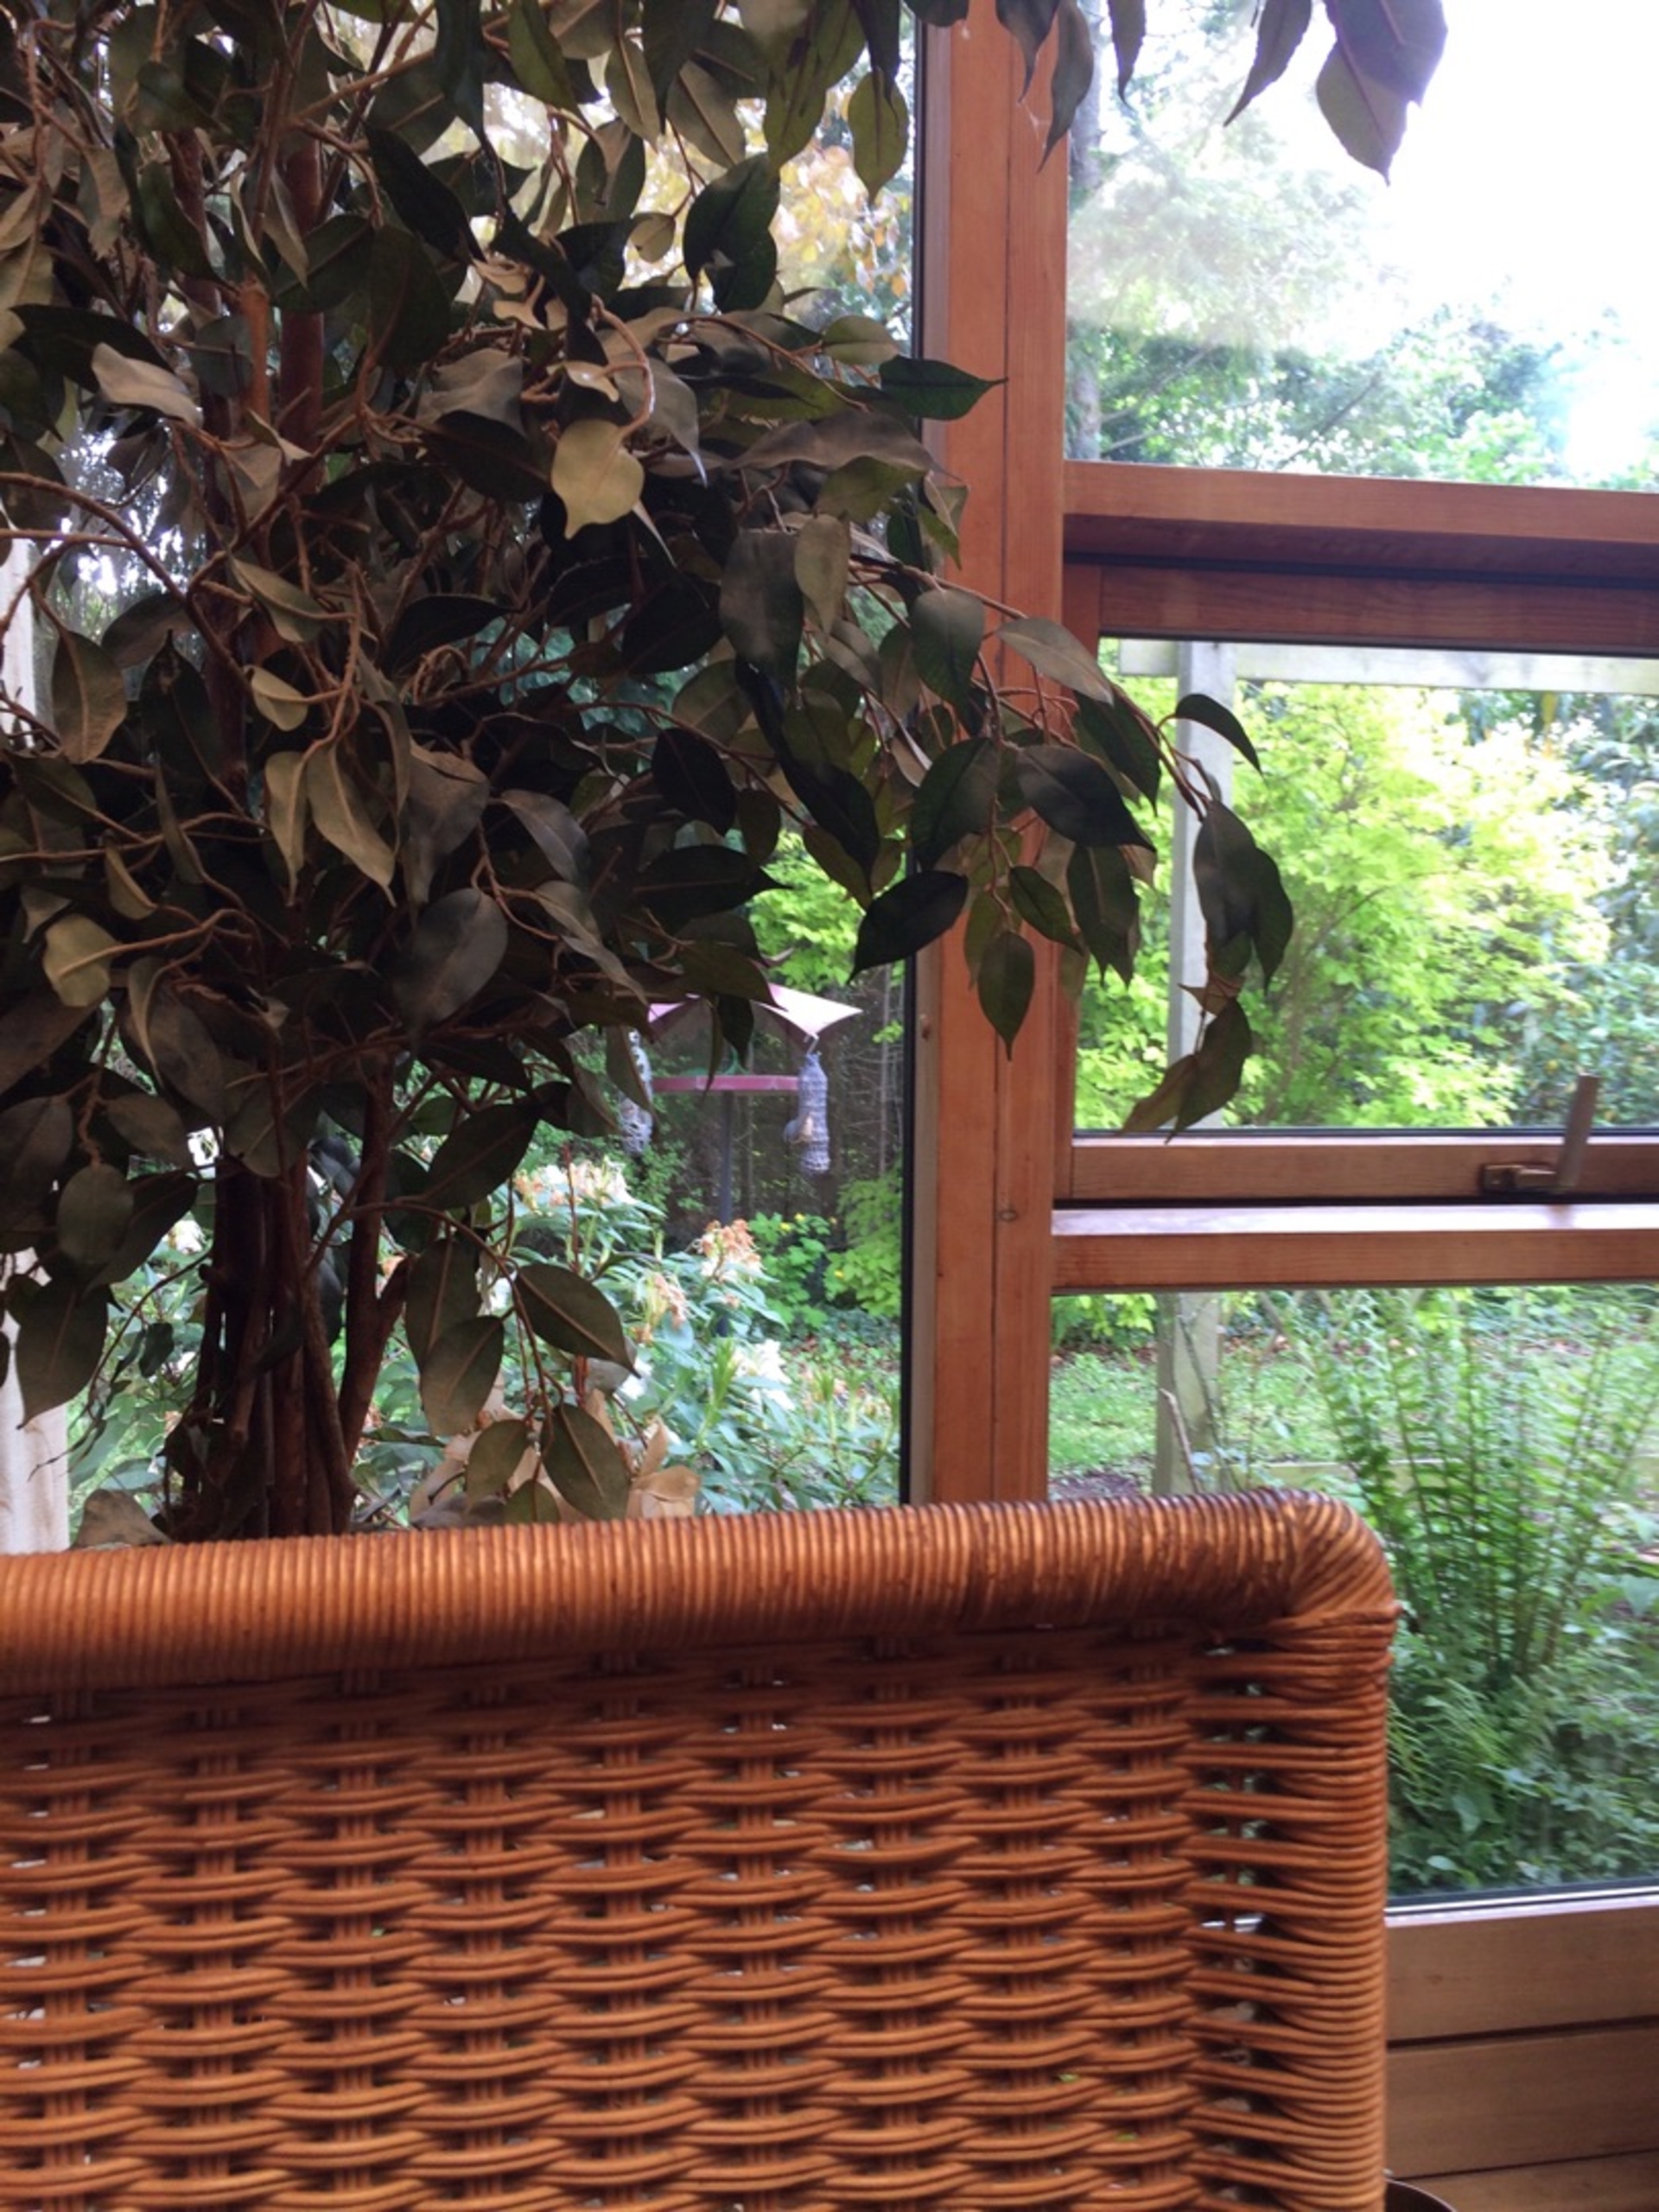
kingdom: Animalia
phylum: Chordata
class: Aves
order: Passeriformes
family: Sittidae
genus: Sitta
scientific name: Sitta europaea
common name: Spætmejse
